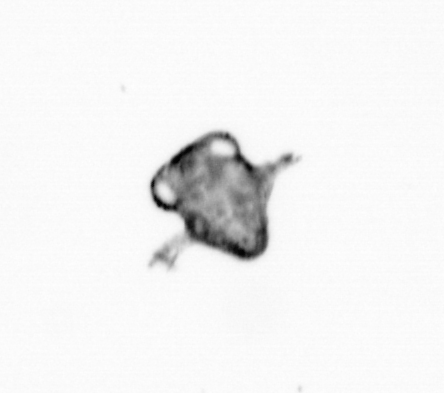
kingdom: Animalia
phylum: Arthropoda
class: Malacostraca
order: Decapoda
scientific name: Decapoda
